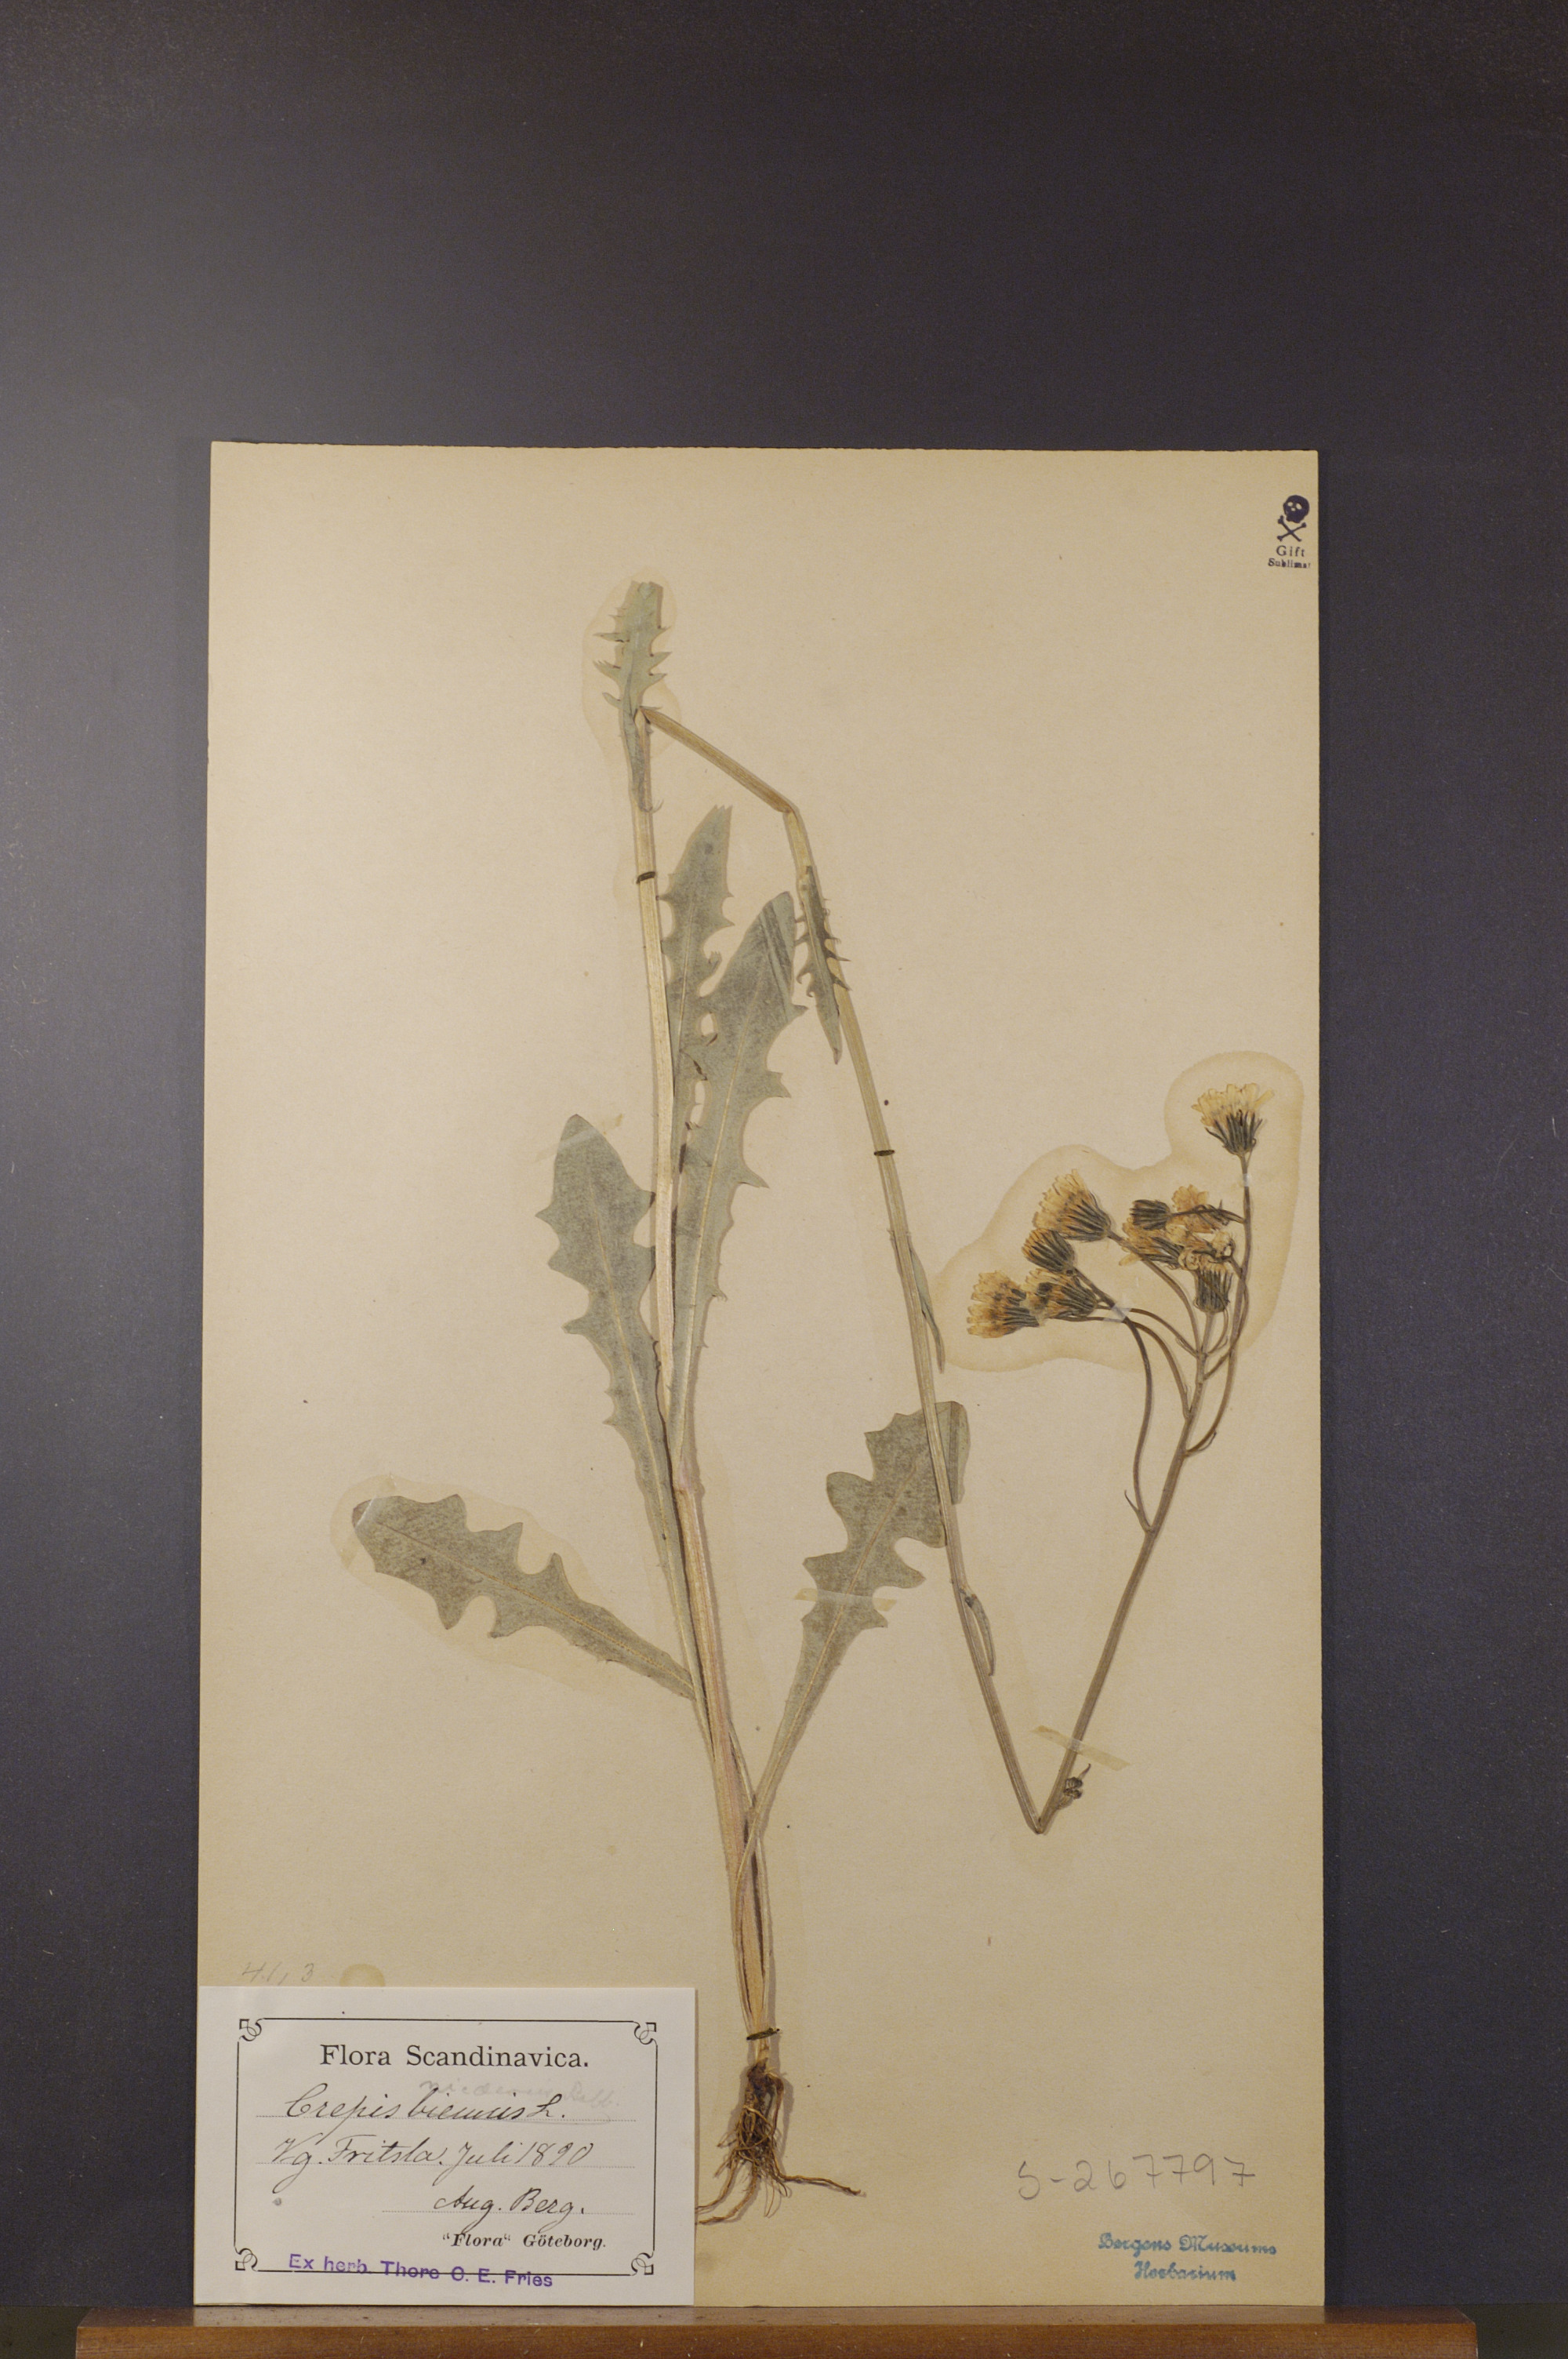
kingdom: Plantae
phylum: Tracheophyta
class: Magnoliopsida
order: Asterales
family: Asteraceae
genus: Crepis
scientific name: Crepis nicaeensis
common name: Turkish hawksbeard
